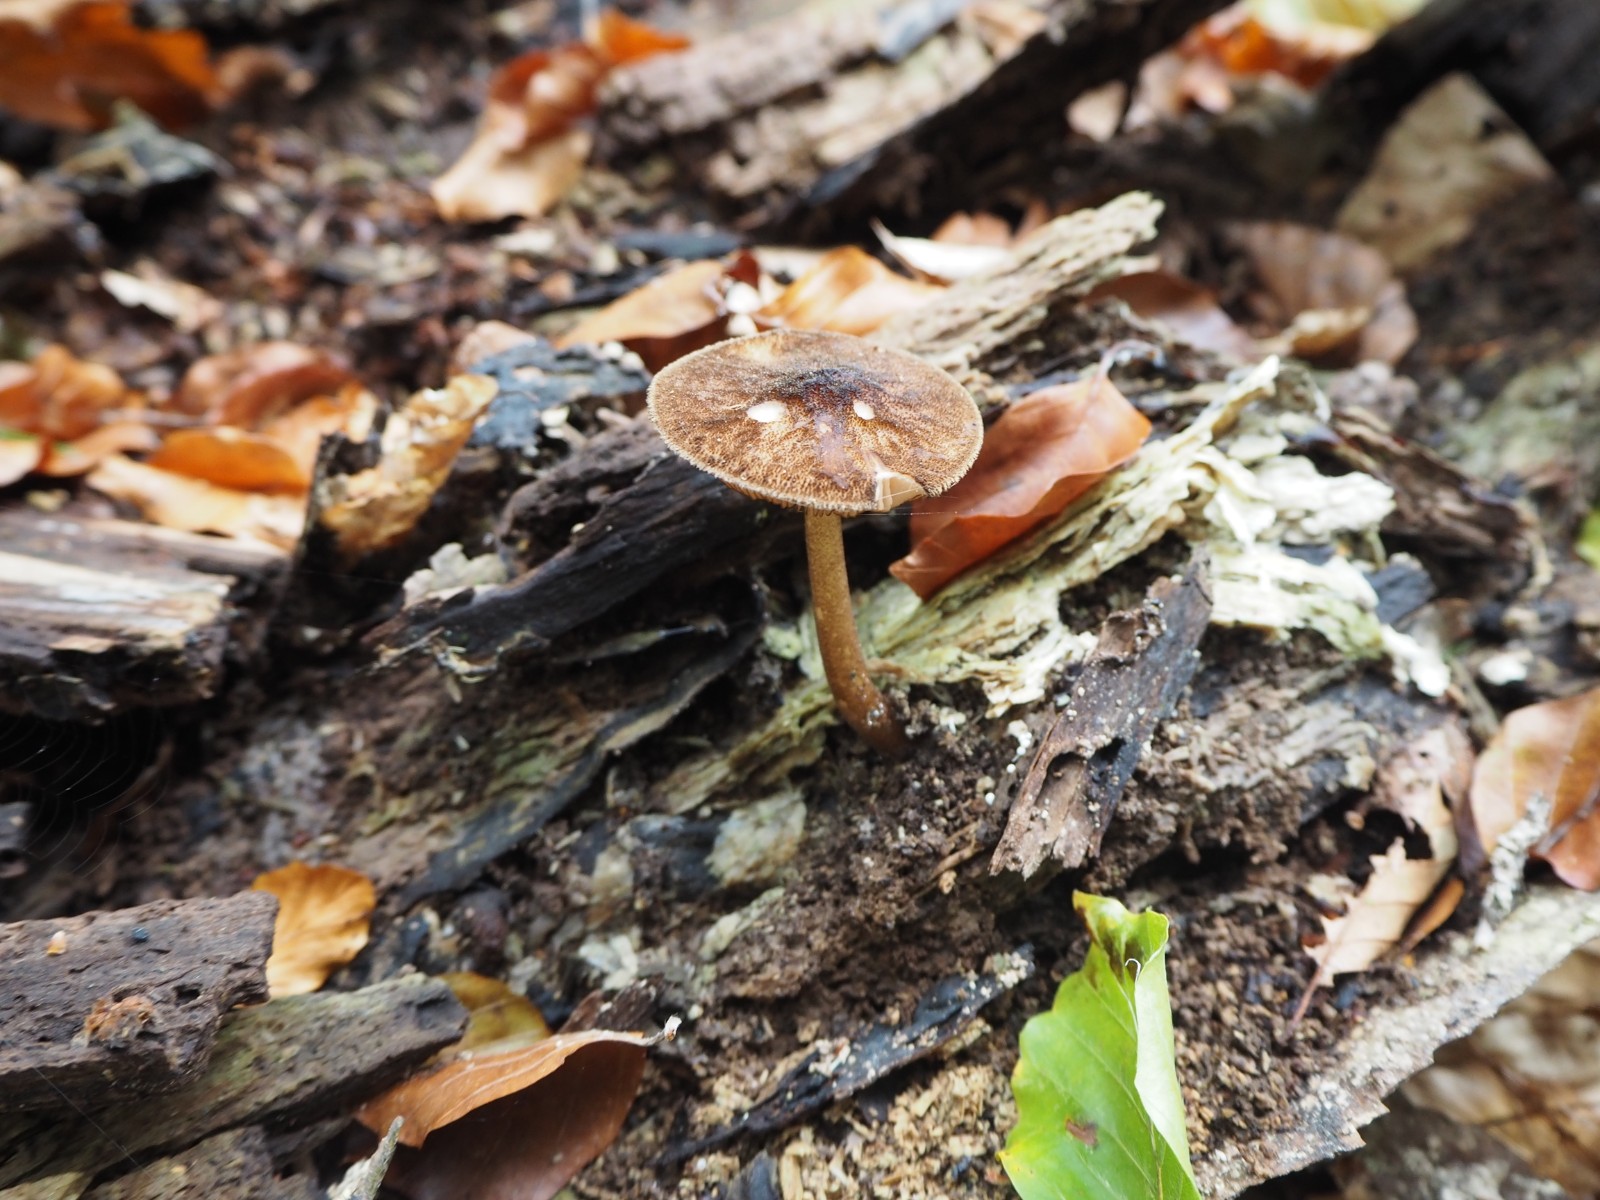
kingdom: Fungi
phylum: Basidiomycota
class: Agaricomycetes
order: Agaricales
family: Pluteaceae
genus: Pluteus
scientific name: Pluteus umbrosus
